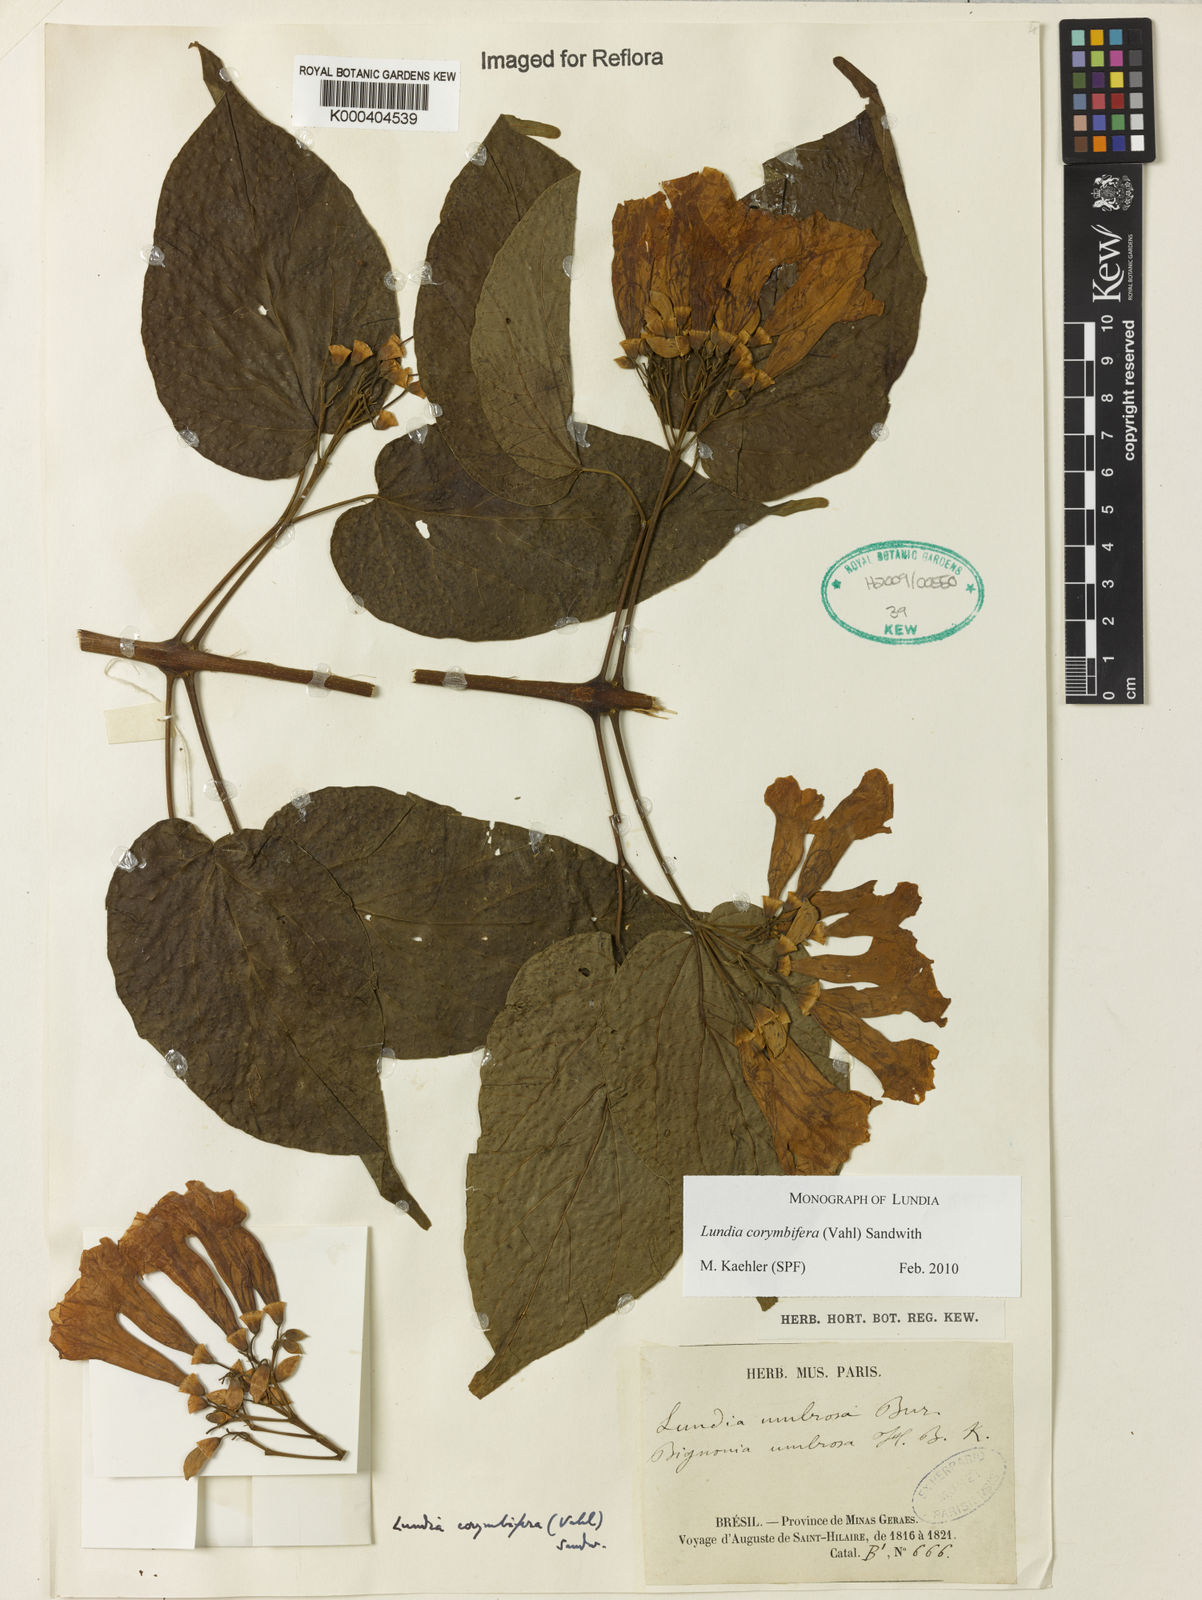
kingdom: Plantae
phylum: Tracheophyta
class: Magnoliopsida
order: Lamiales
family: Bignoniaceae
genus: Lundia
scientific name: Lundia corymbifera
